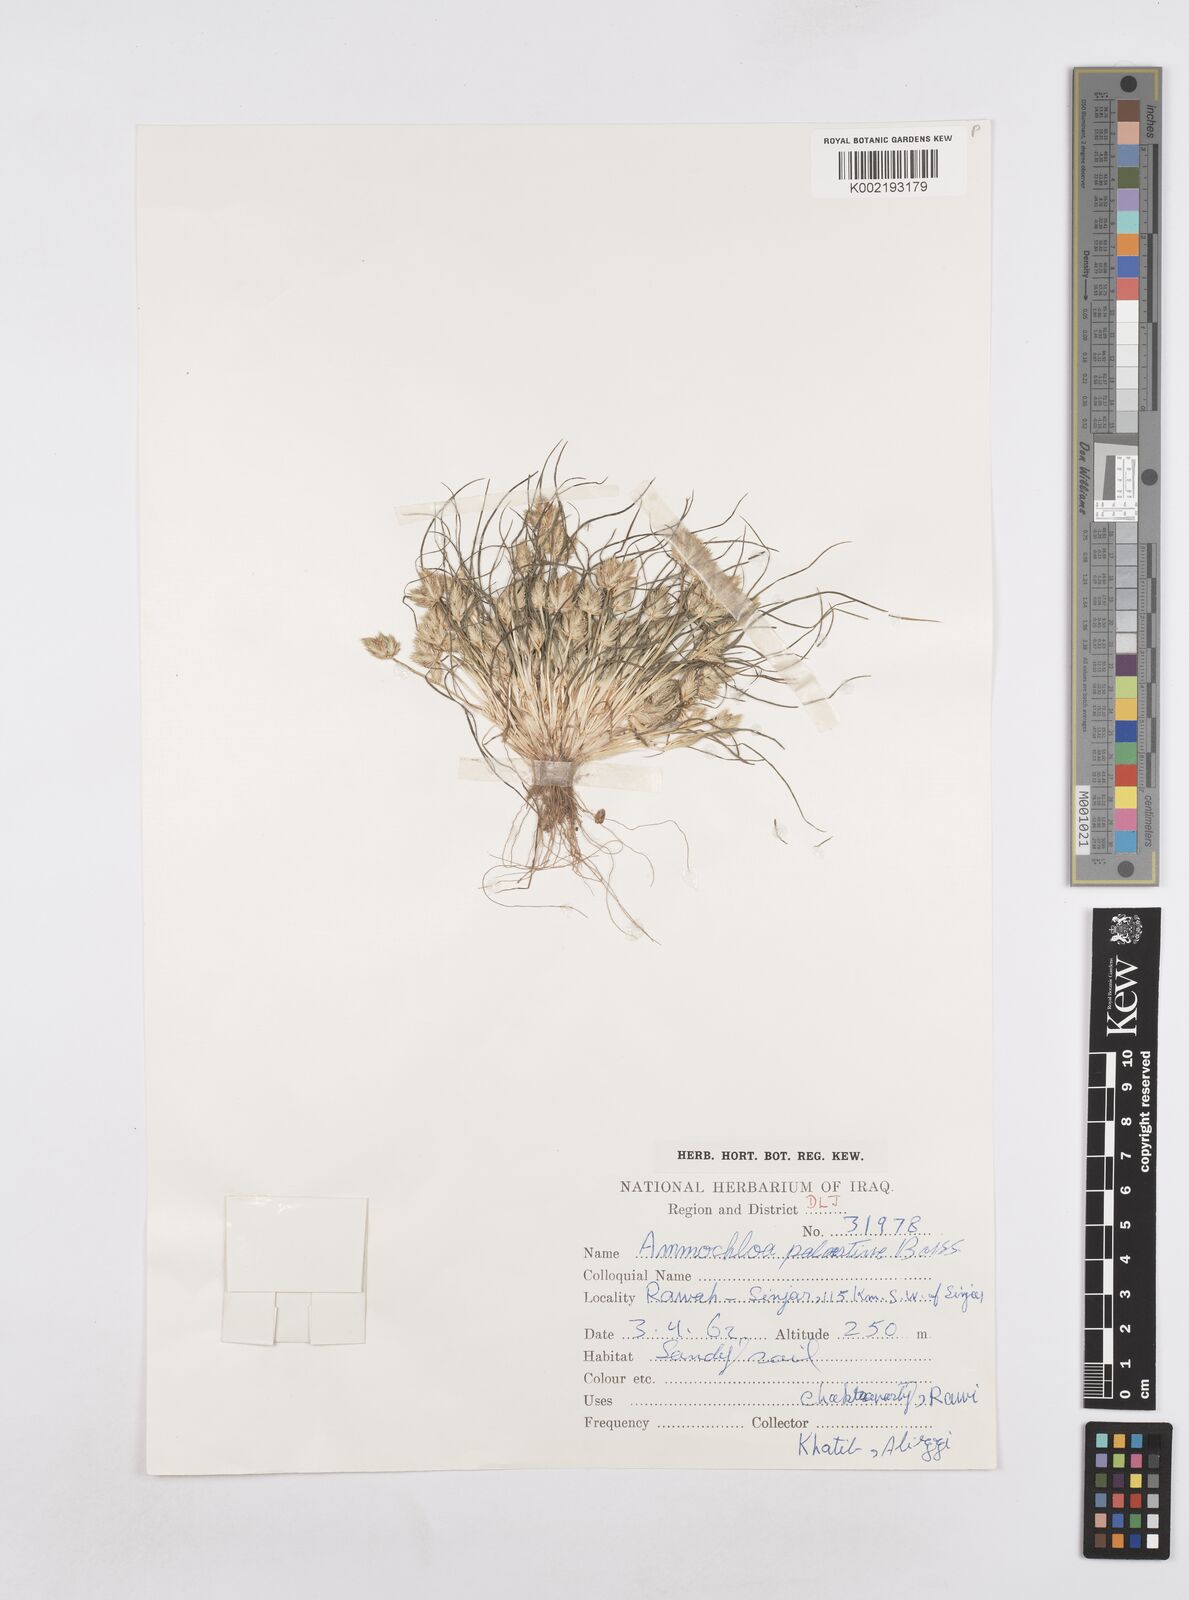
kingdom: Plantae
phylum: Tracheophyta
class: Liliopsida
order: Poales
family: Poaceae
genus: Ammochloa
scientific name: Ammochloa palaestina
